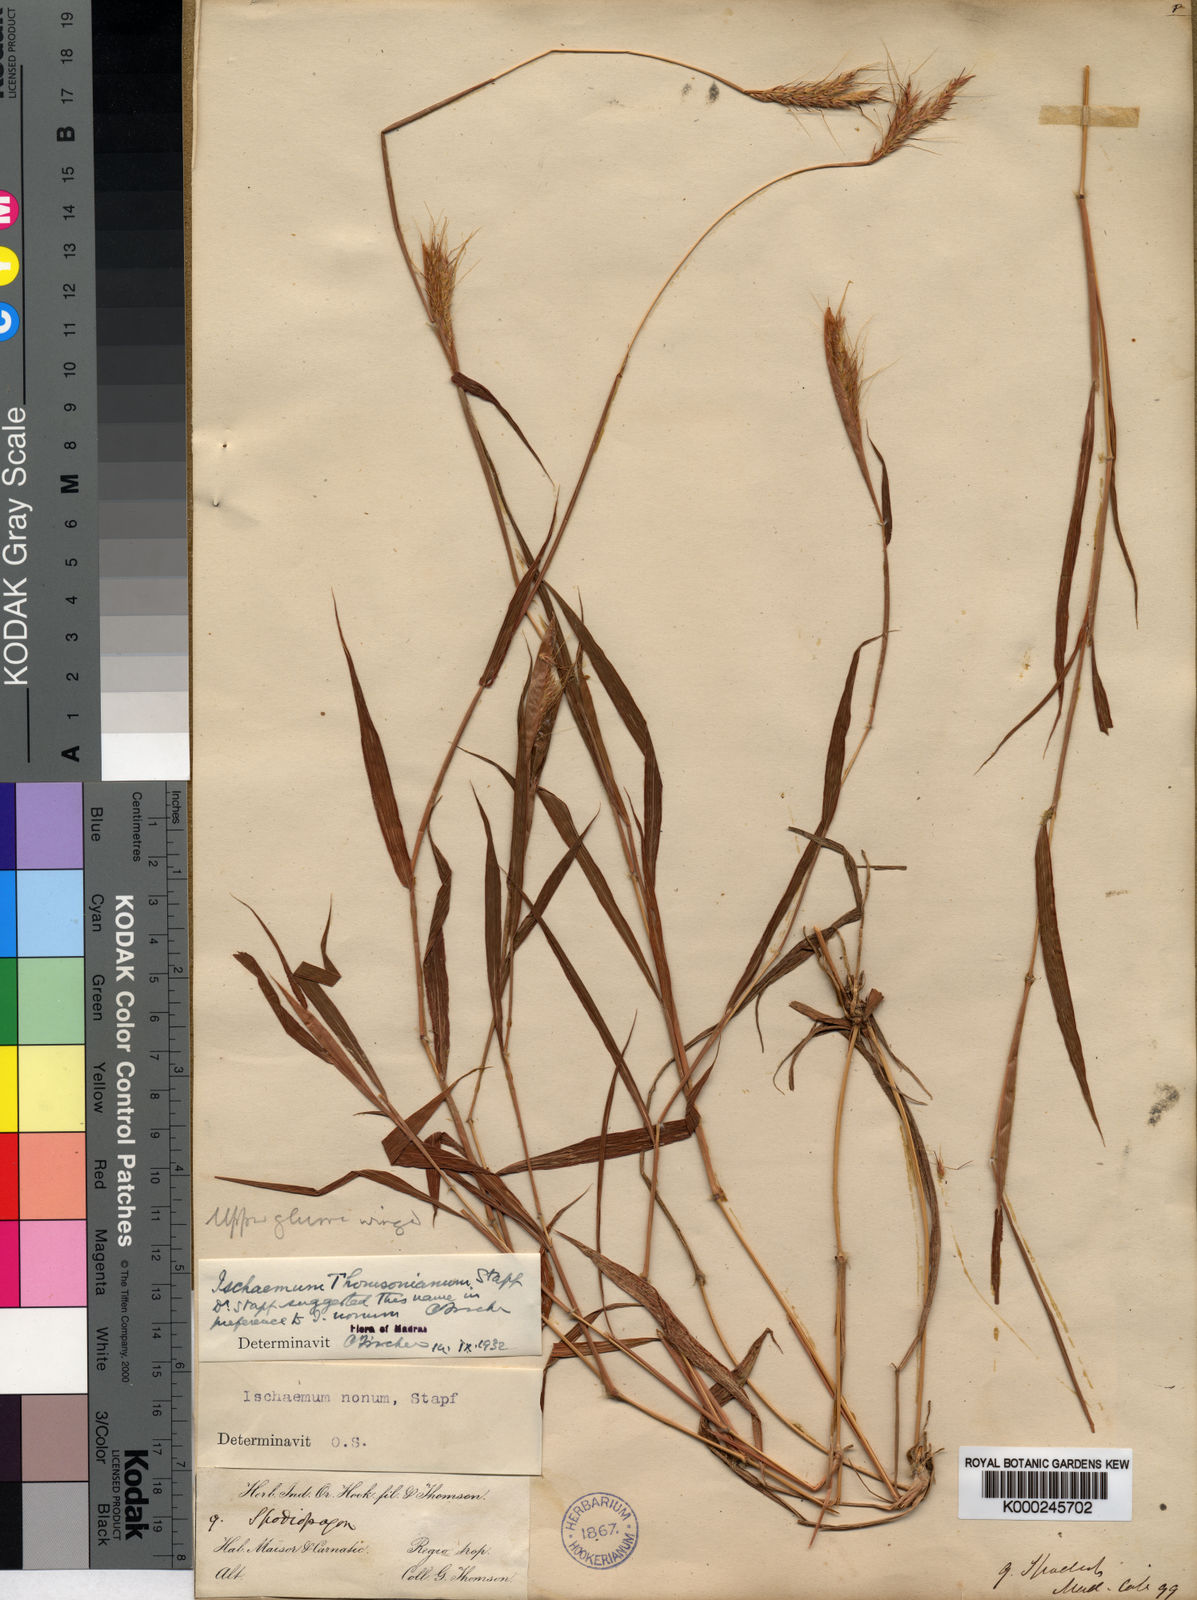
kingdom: Plantae
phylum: Tracheophyta
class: Liliopsida
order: Poales
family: Poaceae
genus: Ischaemum
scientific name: Ischaemum thomsonianum
